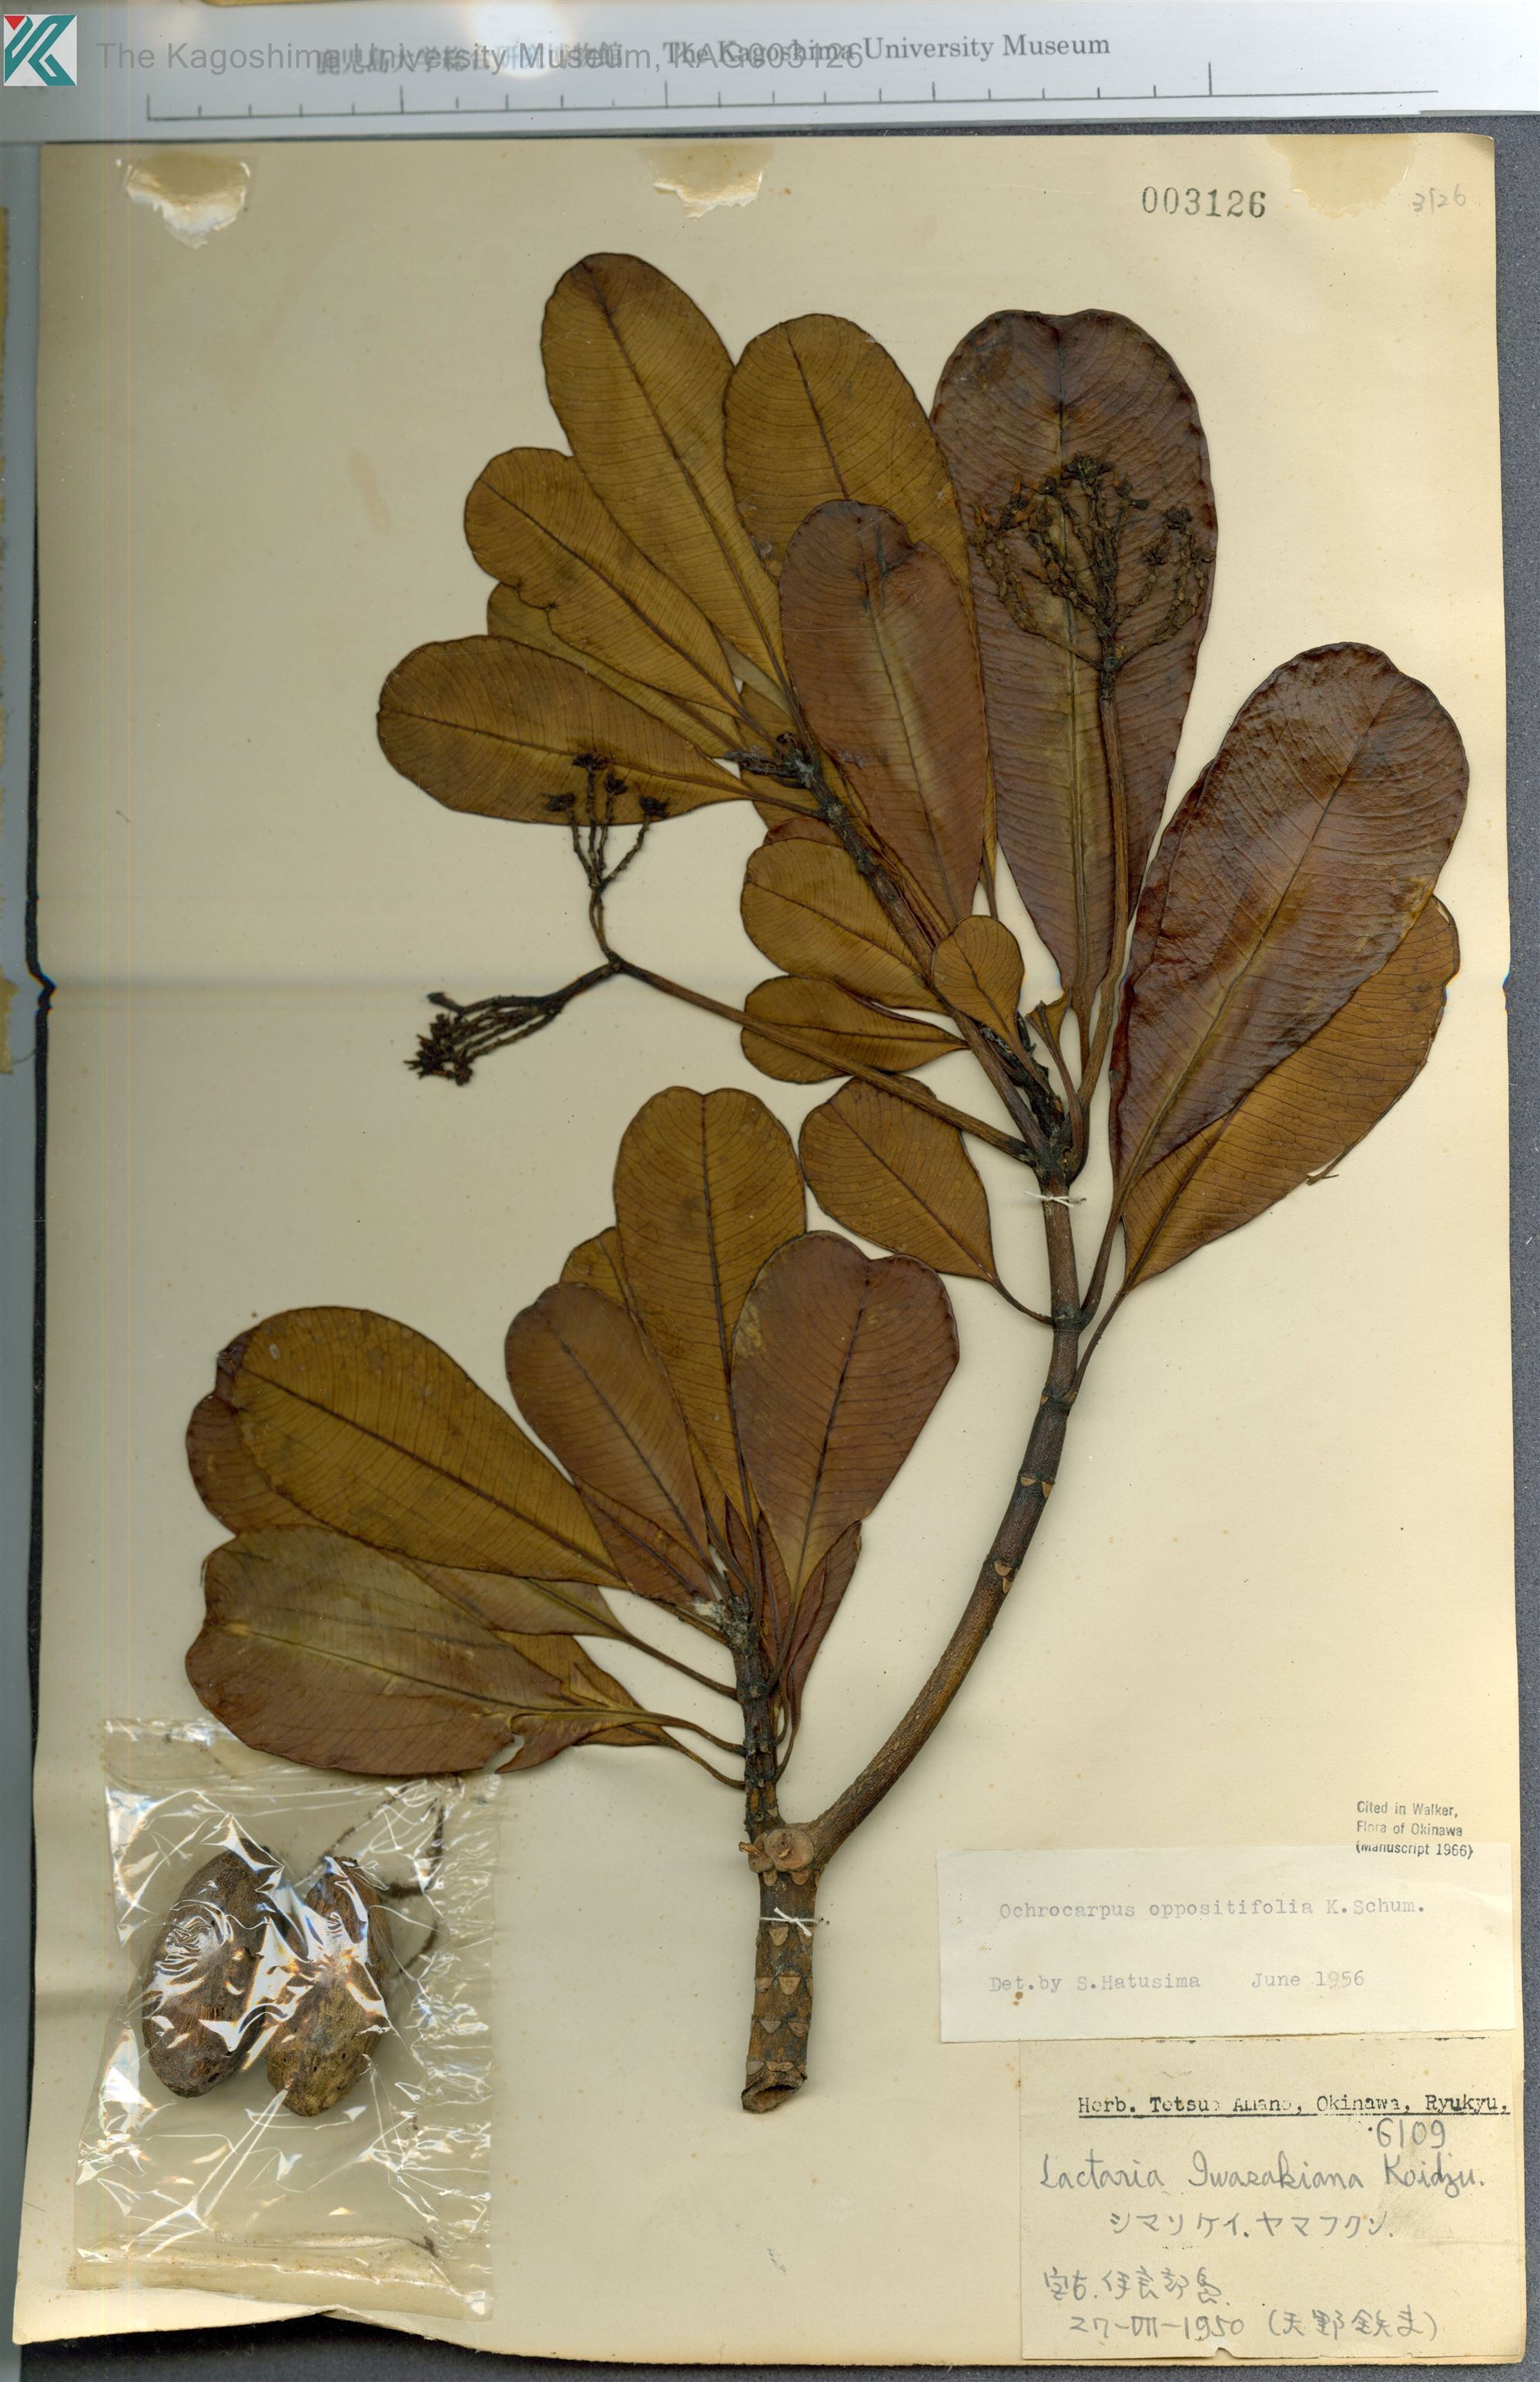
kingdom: Plantae
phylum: Tracheophyta
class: Magnoliopsida
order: Gentianales
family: Apocynaceae
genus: Ochrosia
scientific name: Ochrosia iwasakiana
